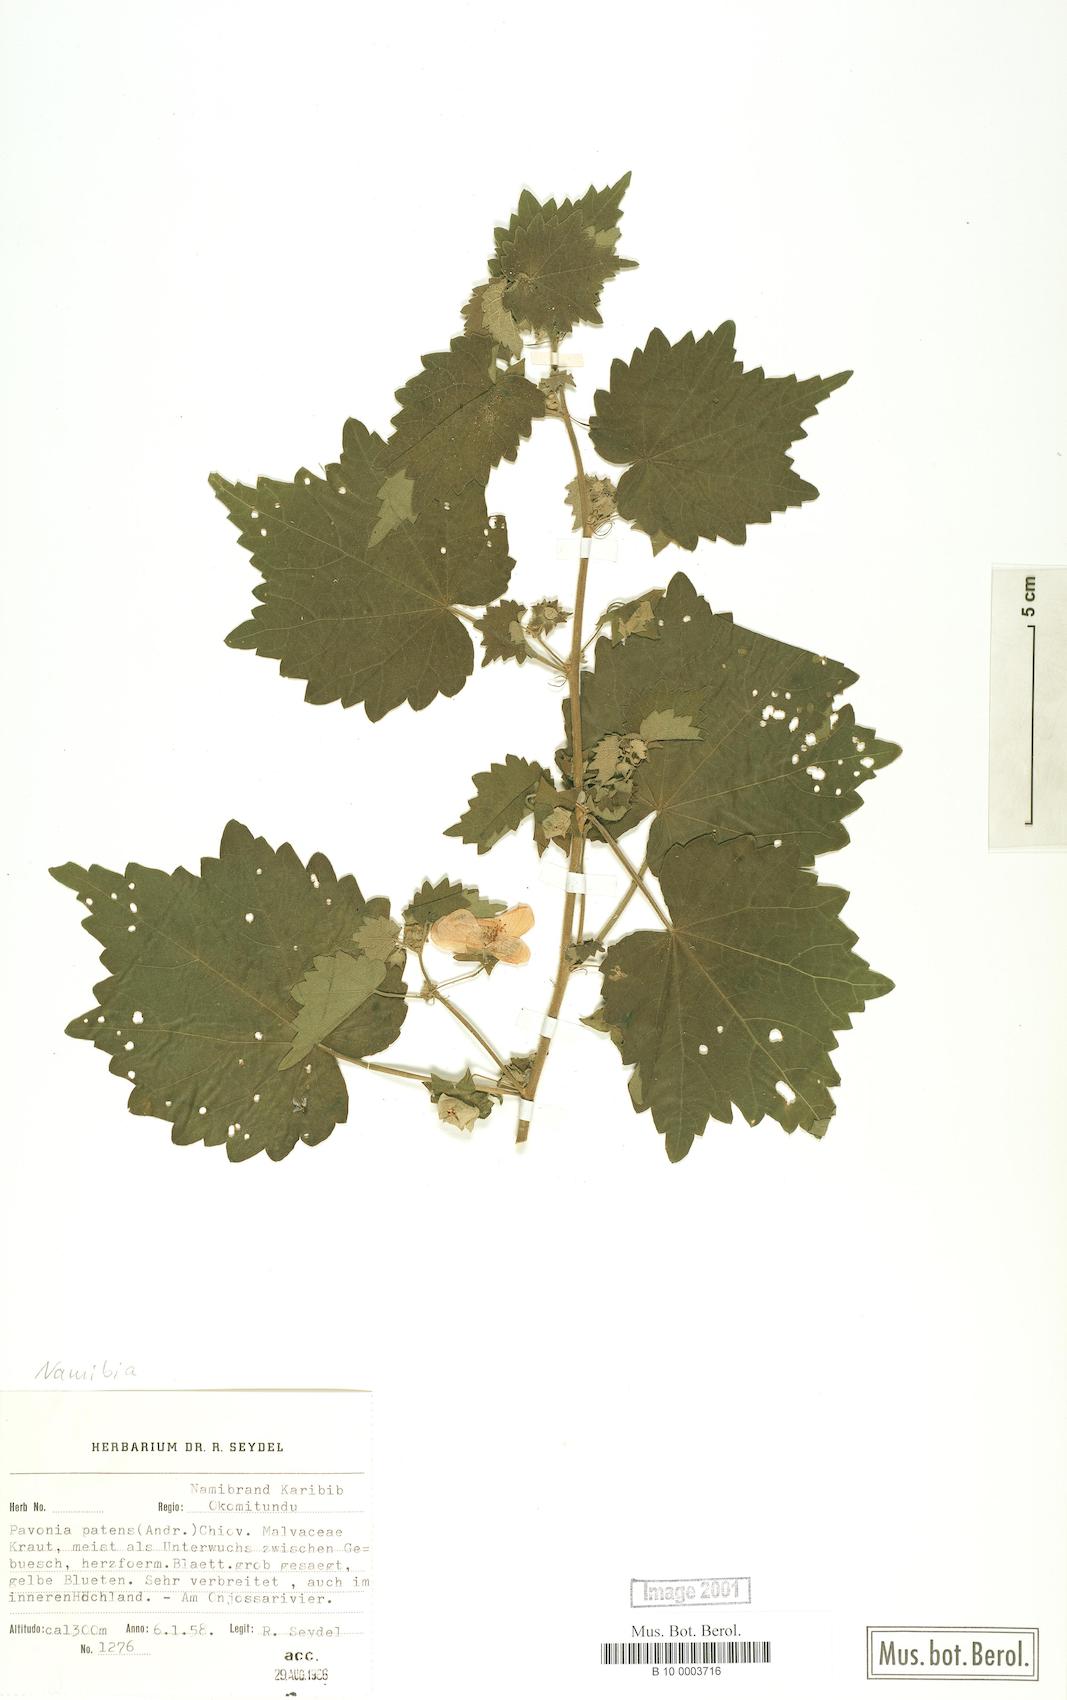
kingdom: Plantae
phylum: Tracheophyta
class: Magnoliopsida
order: Malvales
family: Malvaceae
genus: Abutilon
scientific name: Abutilon mauritianum
